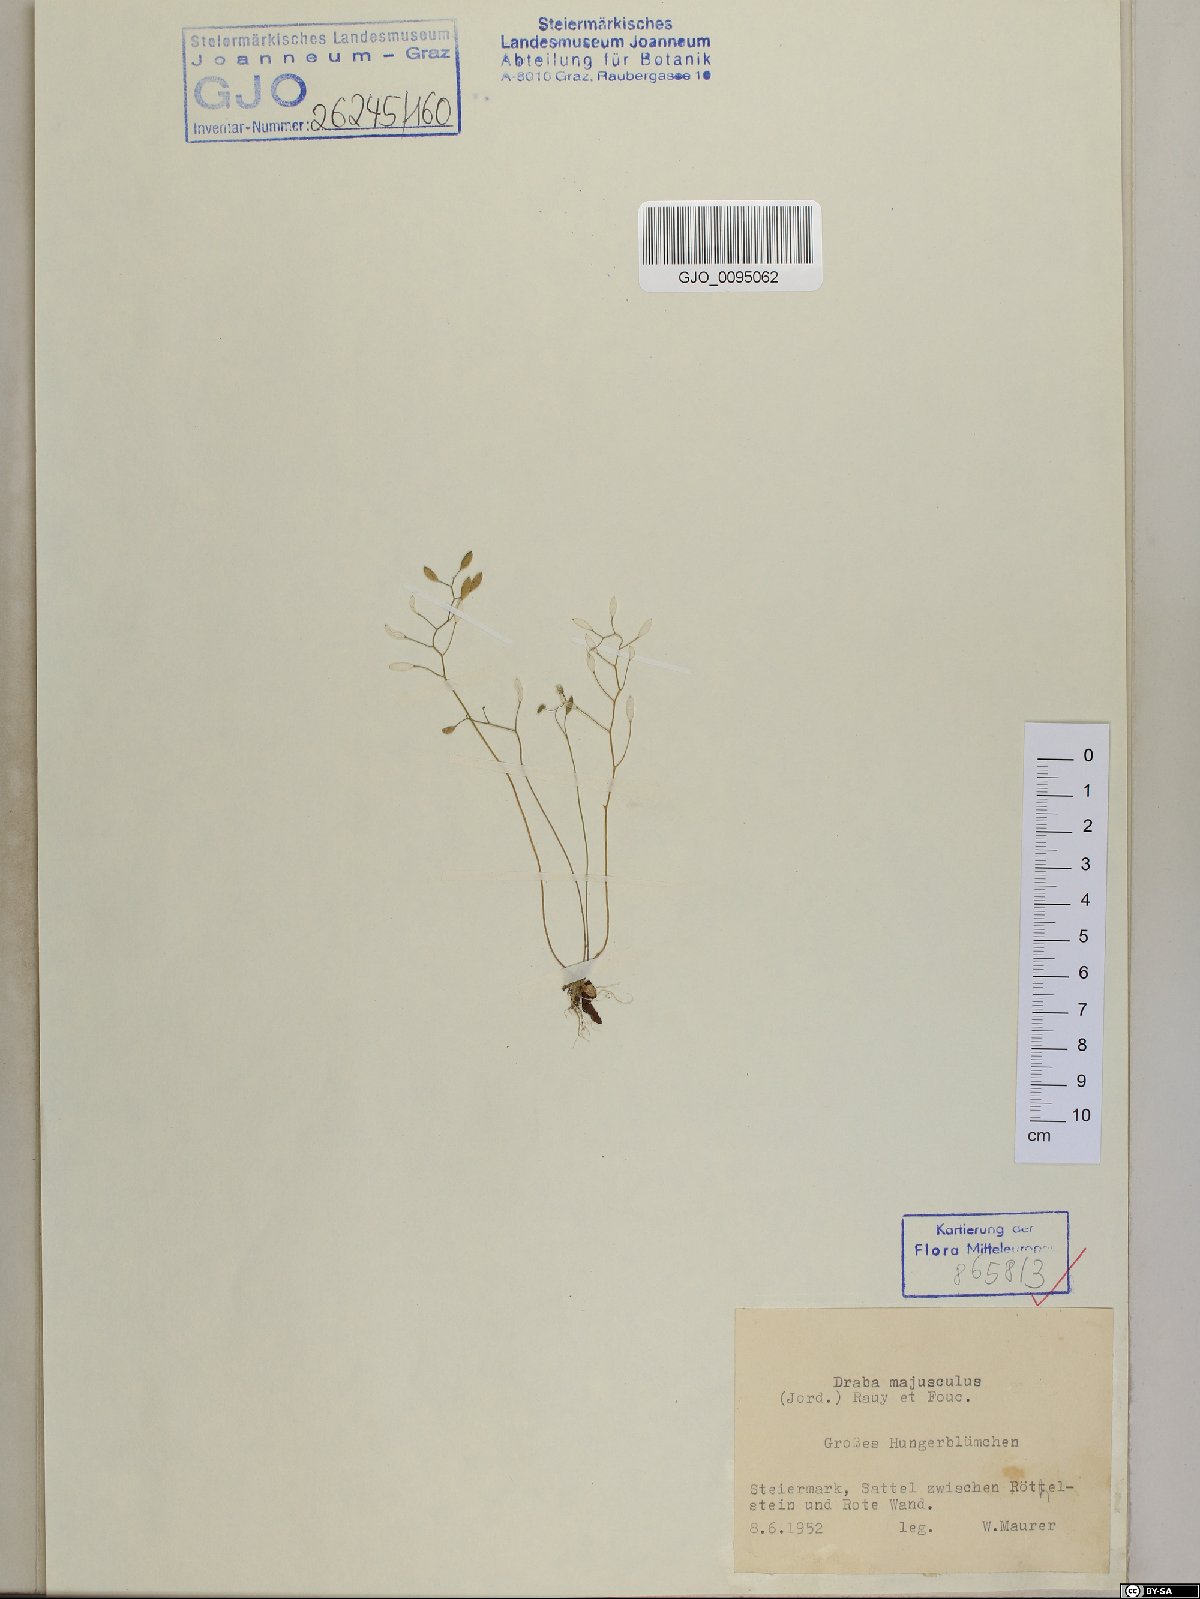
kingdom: Plantae
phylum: Tracheophyta
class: Magnoliopsida
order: Brassicales
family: Brassicaceae
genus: Draba
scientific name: Draba verna
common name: Spring draba
